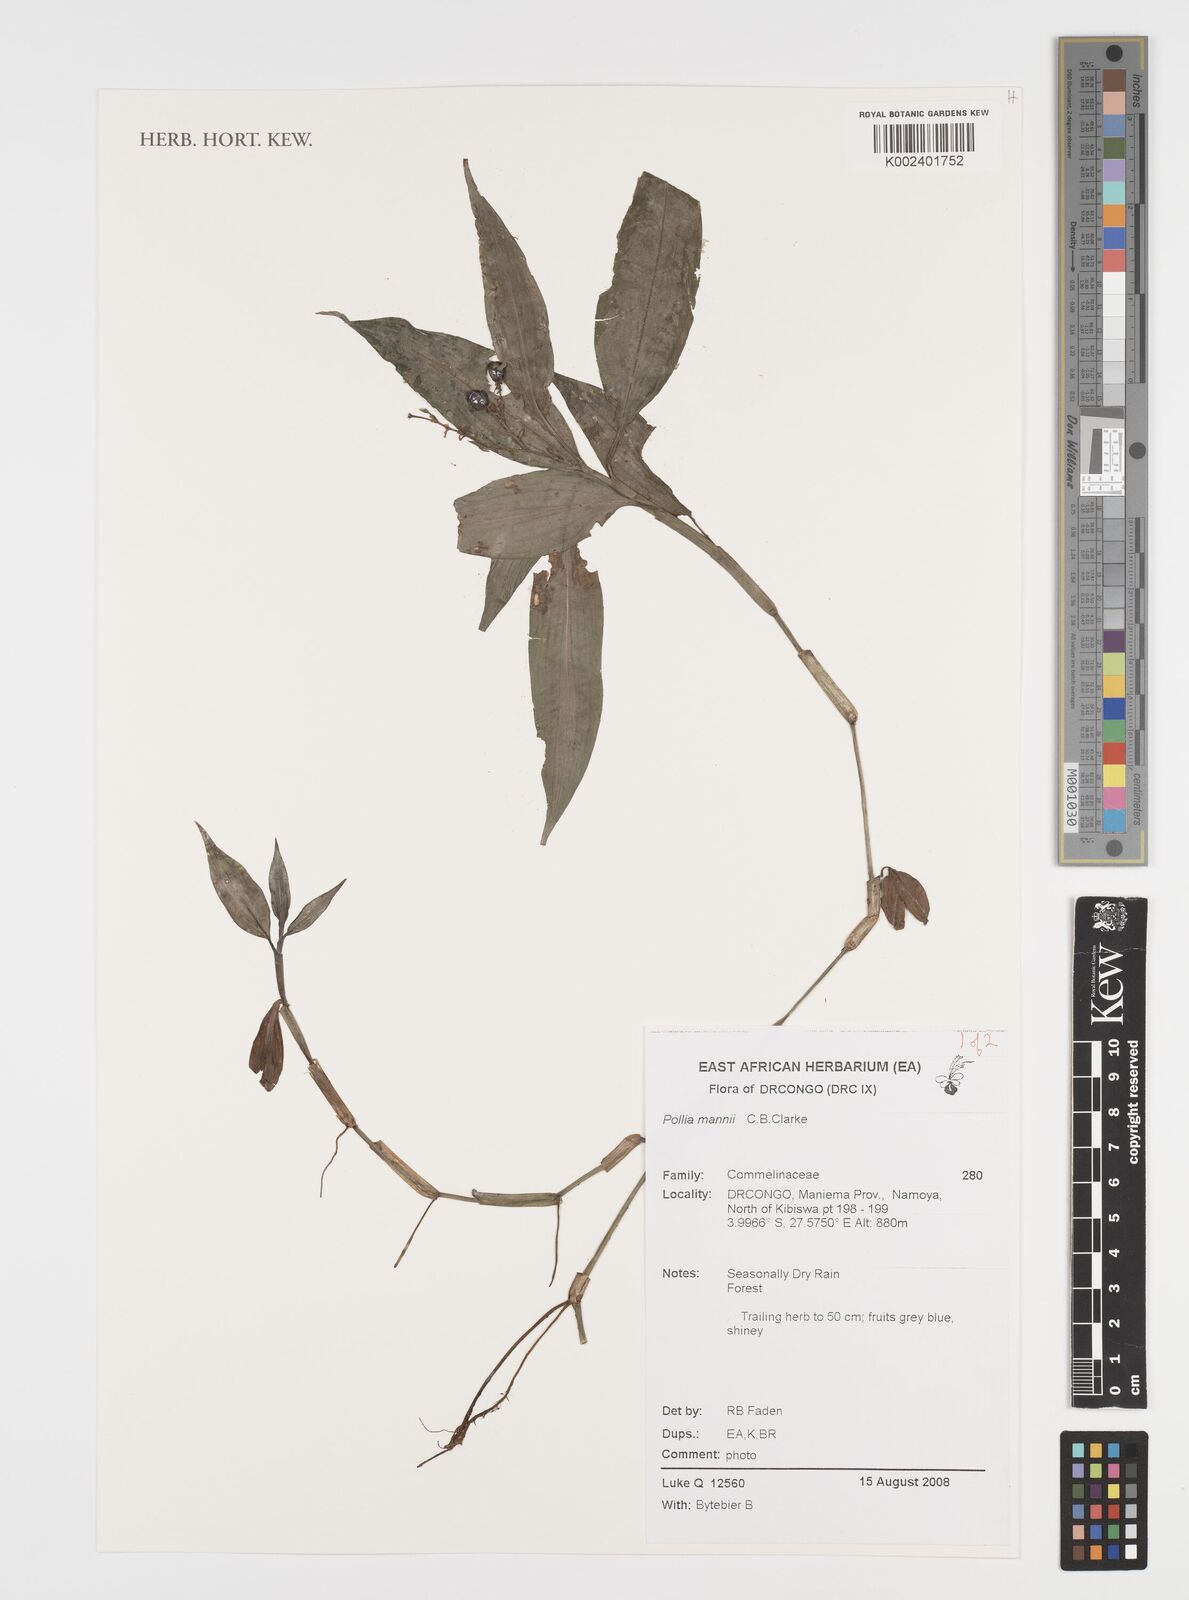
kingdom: Plantae
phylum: Tracheophyta
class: Liliopsida
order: Commelinales
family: Commelinaceae
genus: Pollia
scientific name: Pollia mannii
